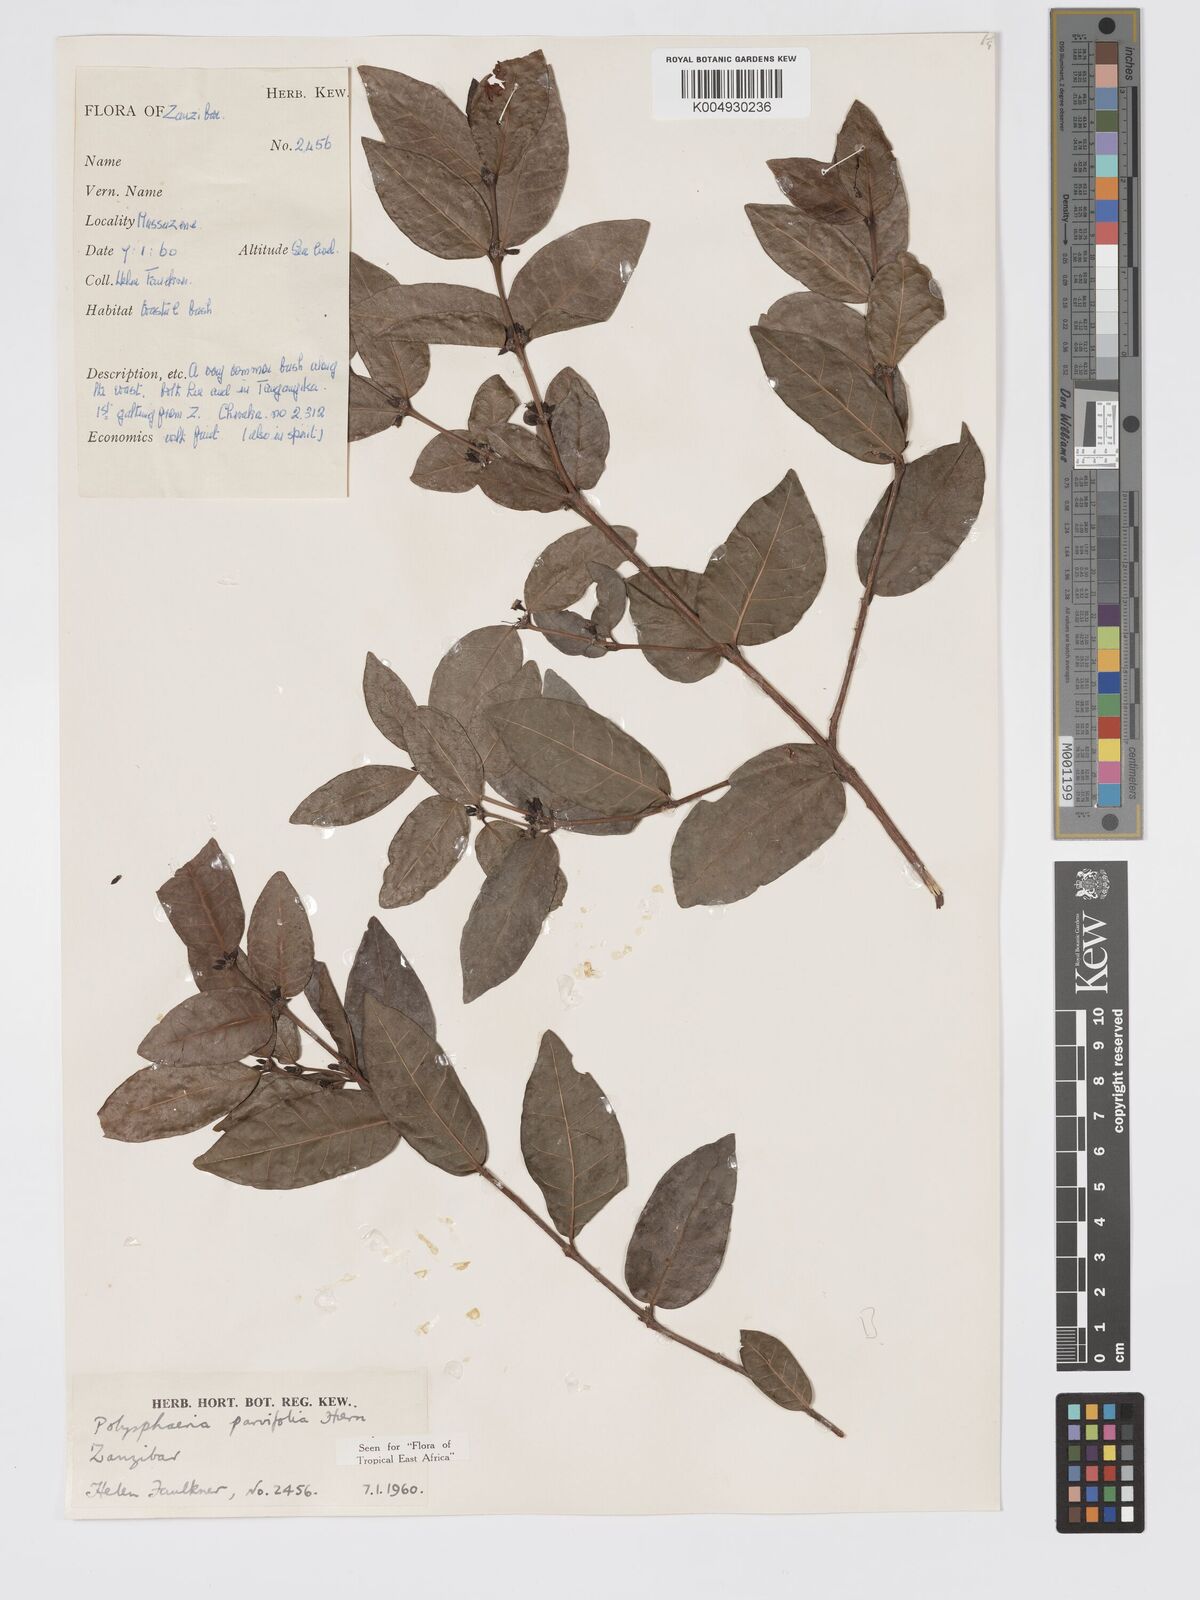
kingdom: Plantae
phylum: Tracheophyta
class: Magnoliopsida
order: Gentianales
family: Rubiaceae
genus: Polysphaeria
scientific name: Polysphaeria parvifolia
